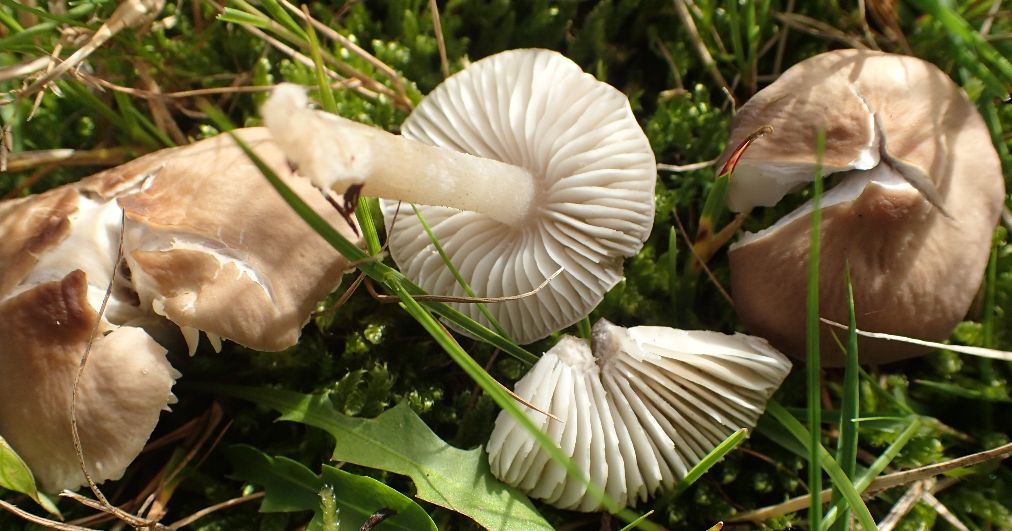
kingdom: Fungi
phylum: Basidiomycota
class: Agaricomycetes
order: Agaricales
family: Tricholomataceae
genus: Dermoloma
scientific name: Dermoloma cuneifolium
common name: eng-nonnehat
